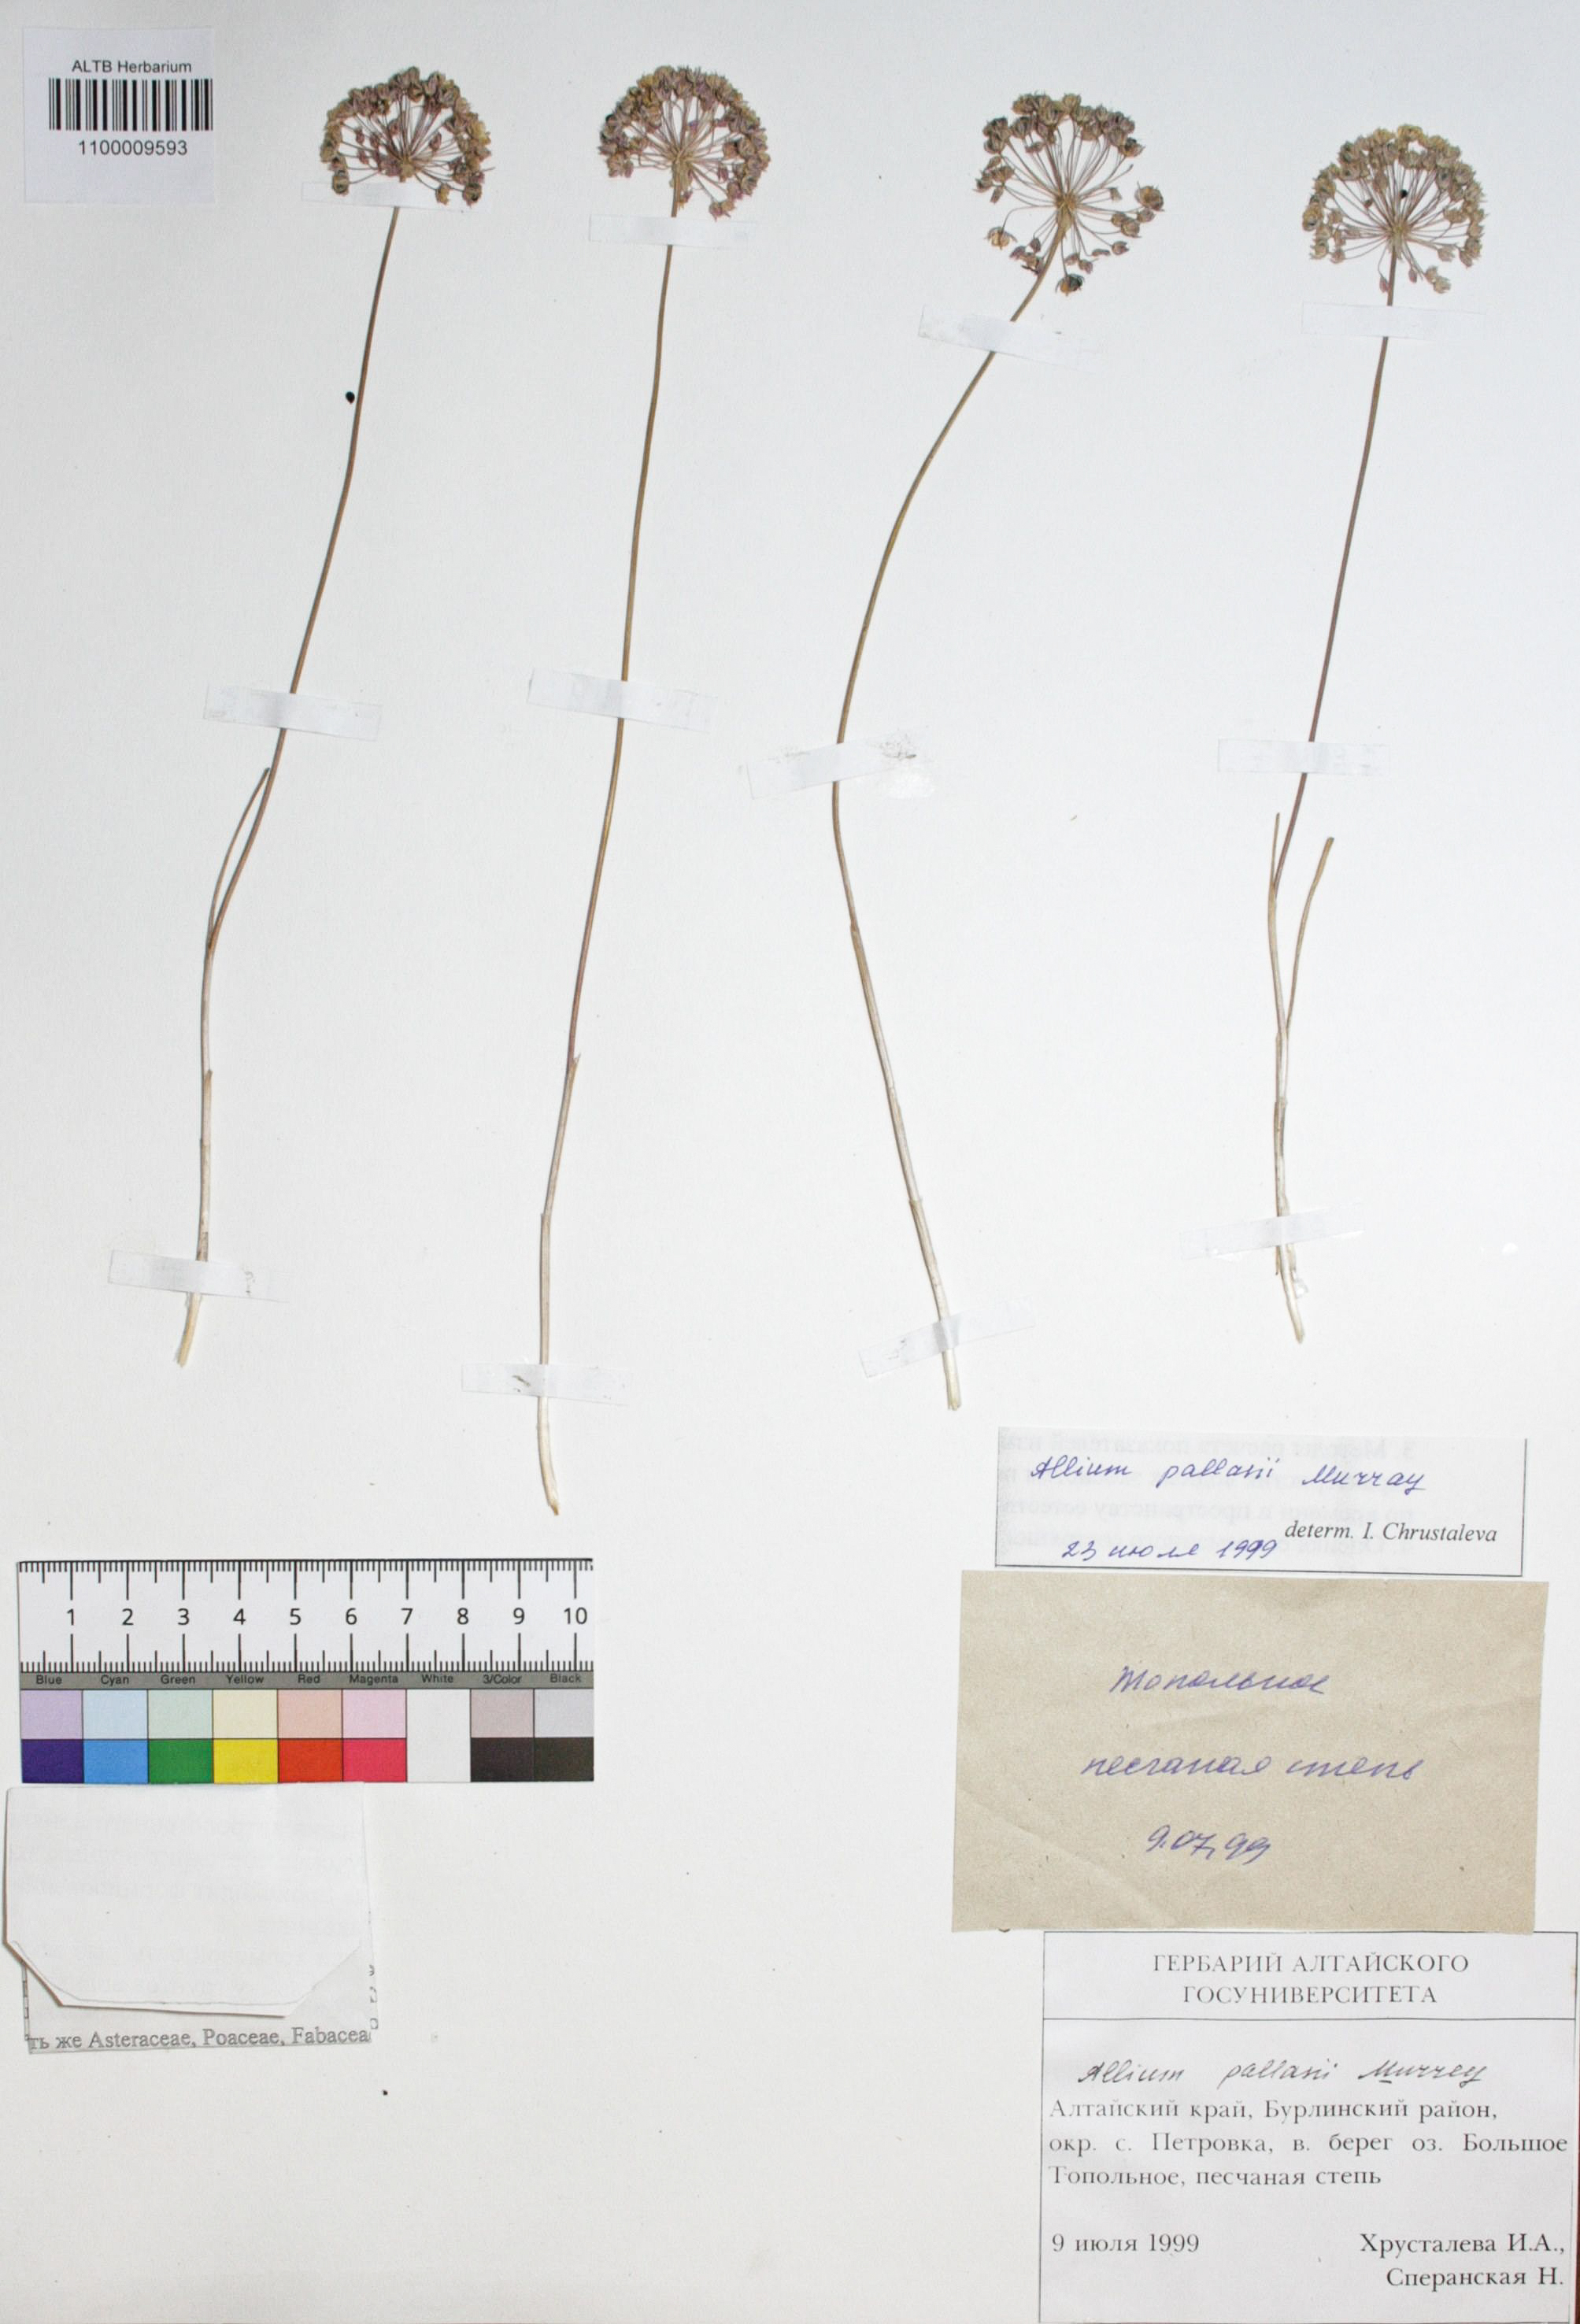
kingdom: Plantae
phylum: Tracheophyta
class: Liliopsida
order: Asparagales
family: Amaryllidaceae
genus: Allium
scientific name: Allium pallasii
